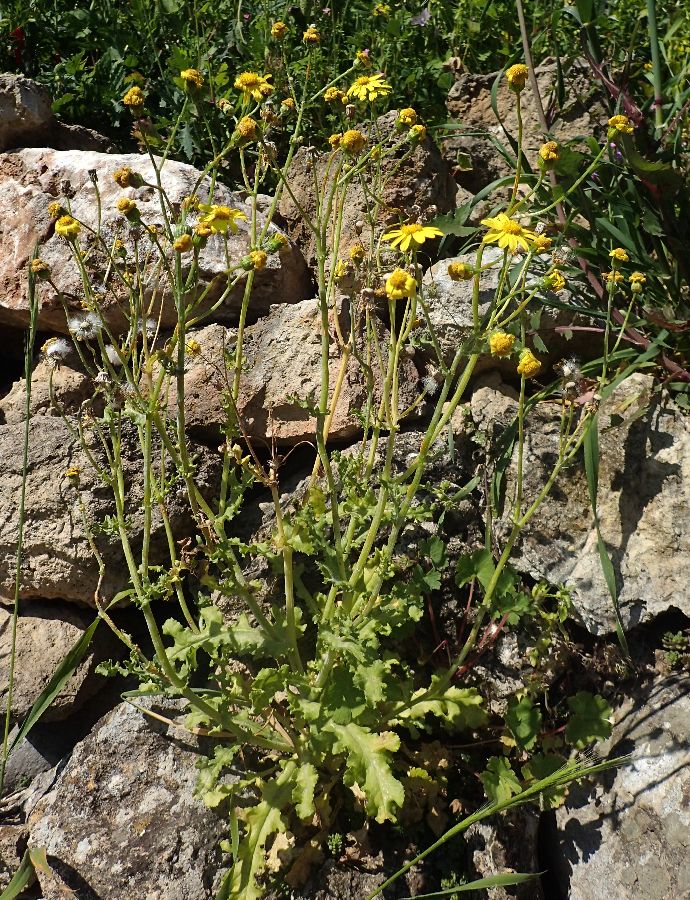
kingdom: Plantae
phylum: Tracheophyta
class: Magnoliopsida
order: Asterales
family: Asteraceae
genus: Senecio
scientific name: Senecio vernalis
